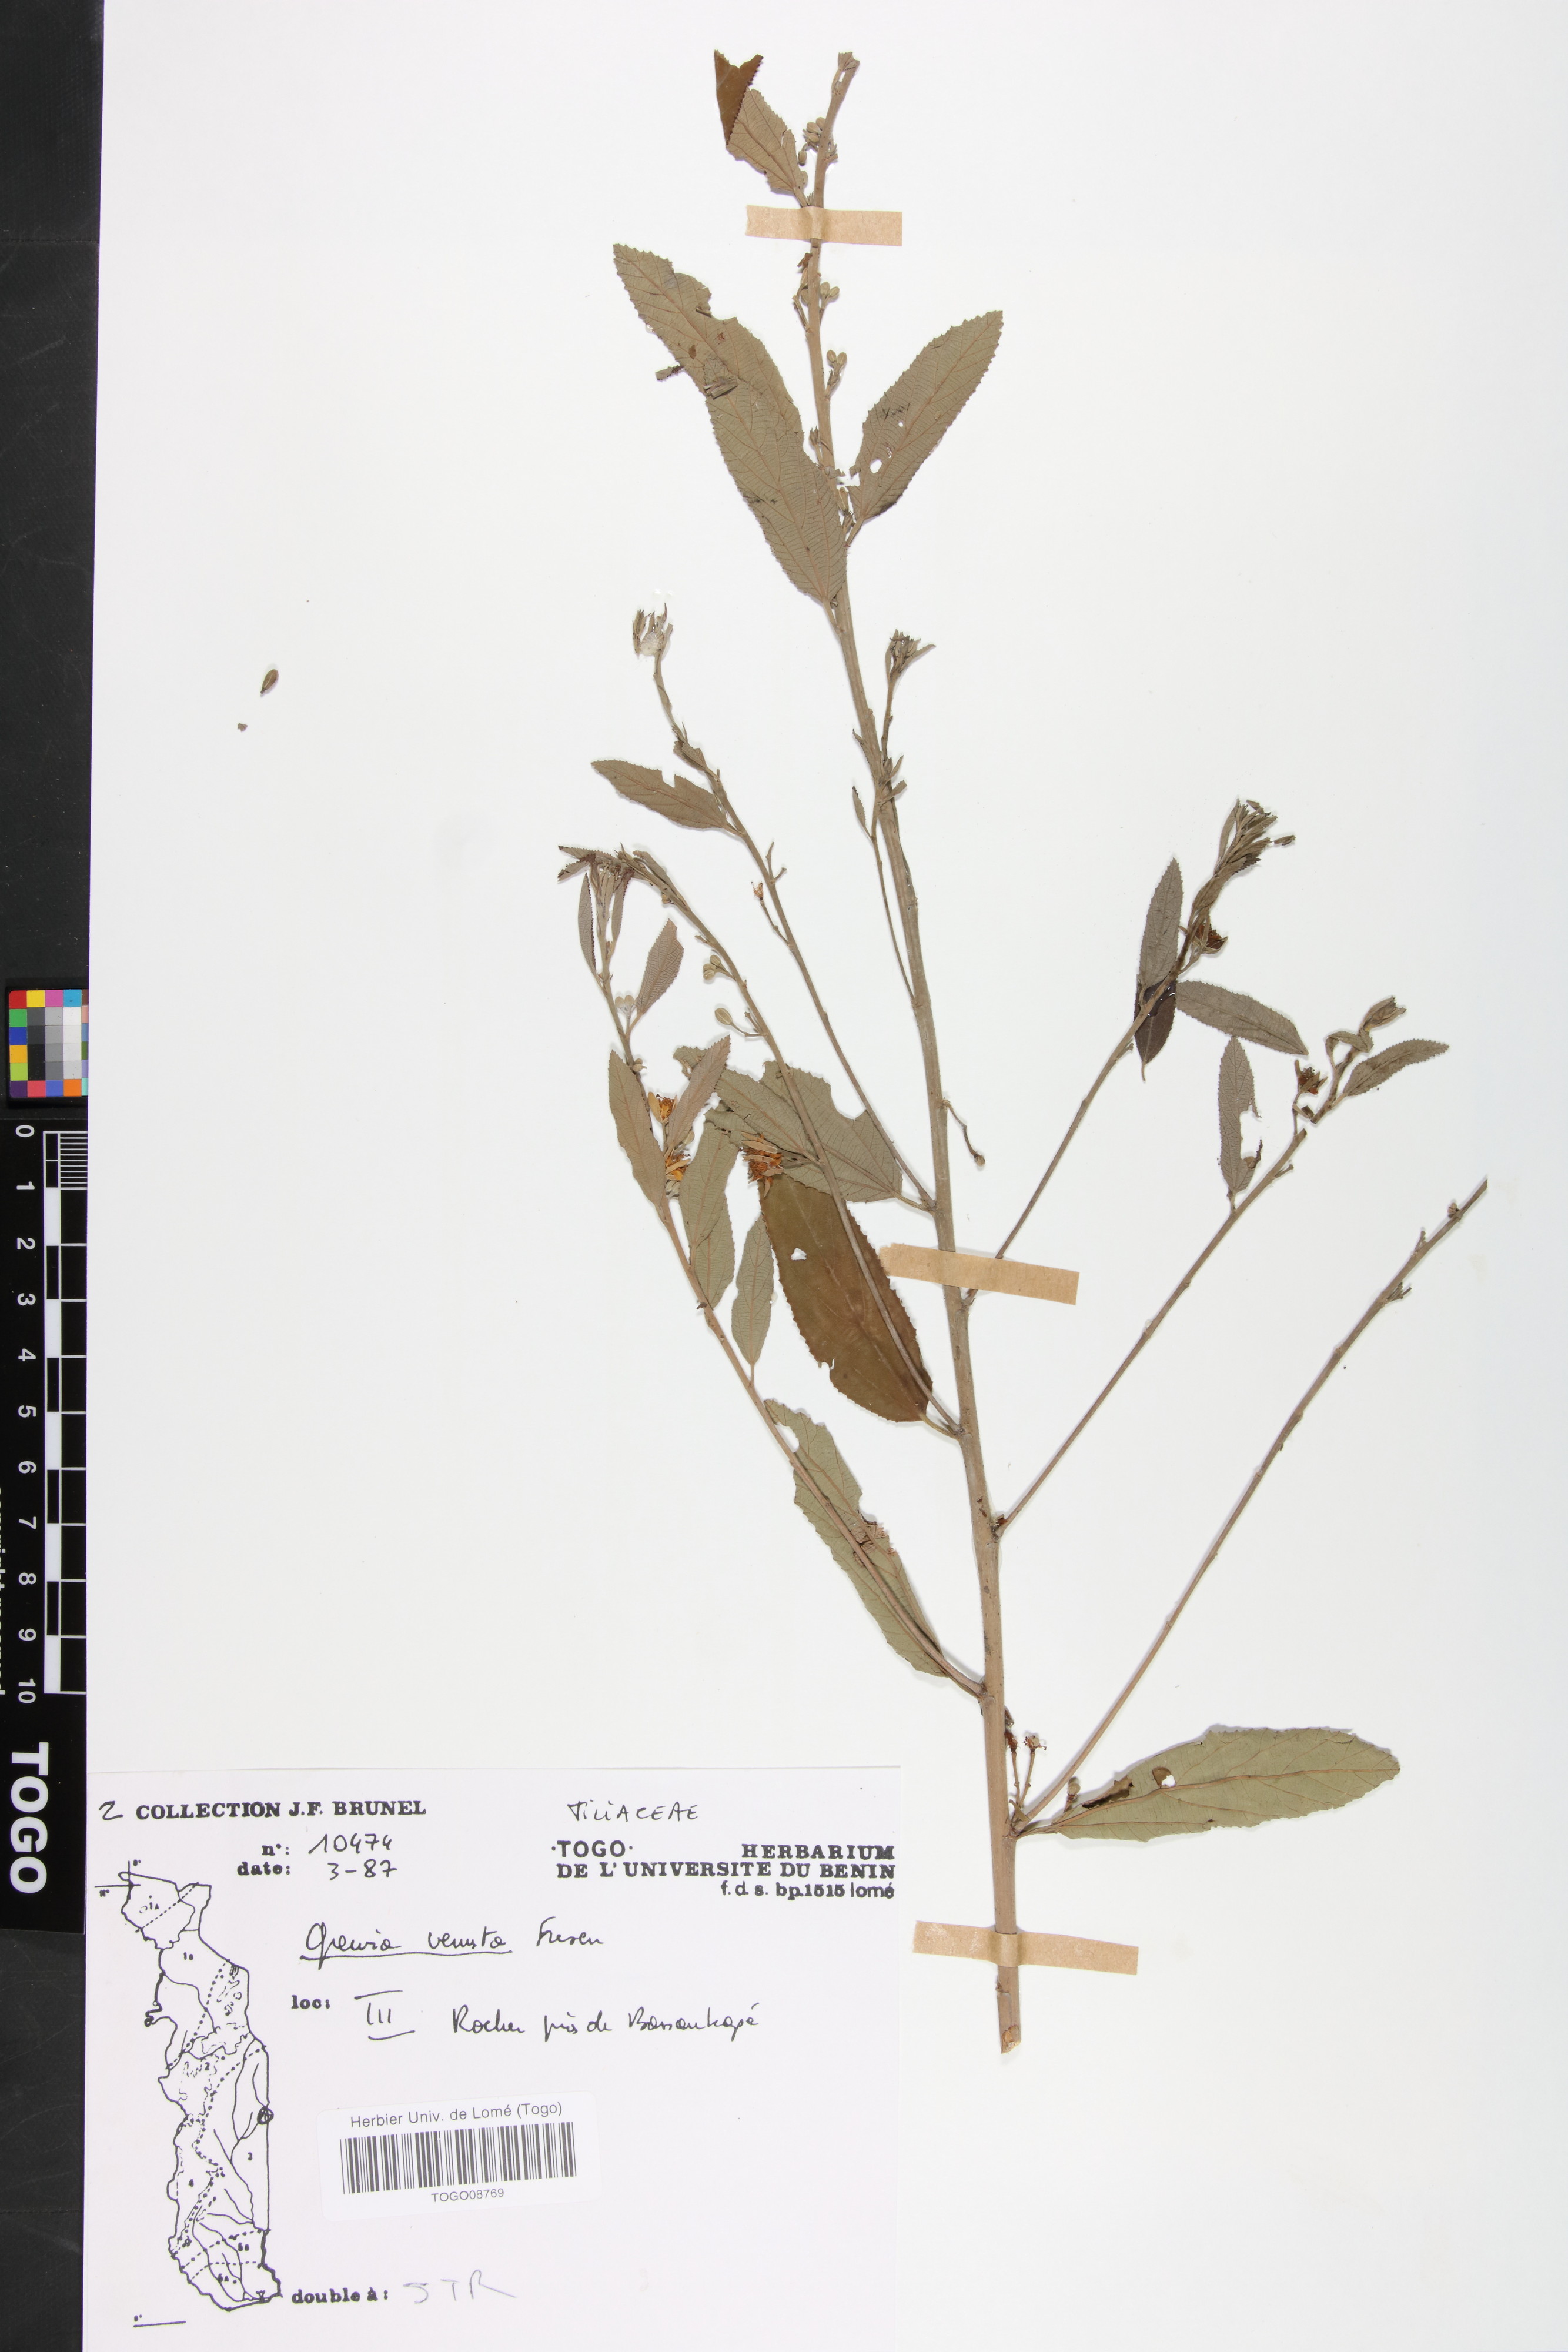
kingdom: Plantae
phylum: Tracheophyta
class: Magnoliopsida
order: Malvales
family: Malvaceae
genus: Grewia
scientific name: Grewia mollis
